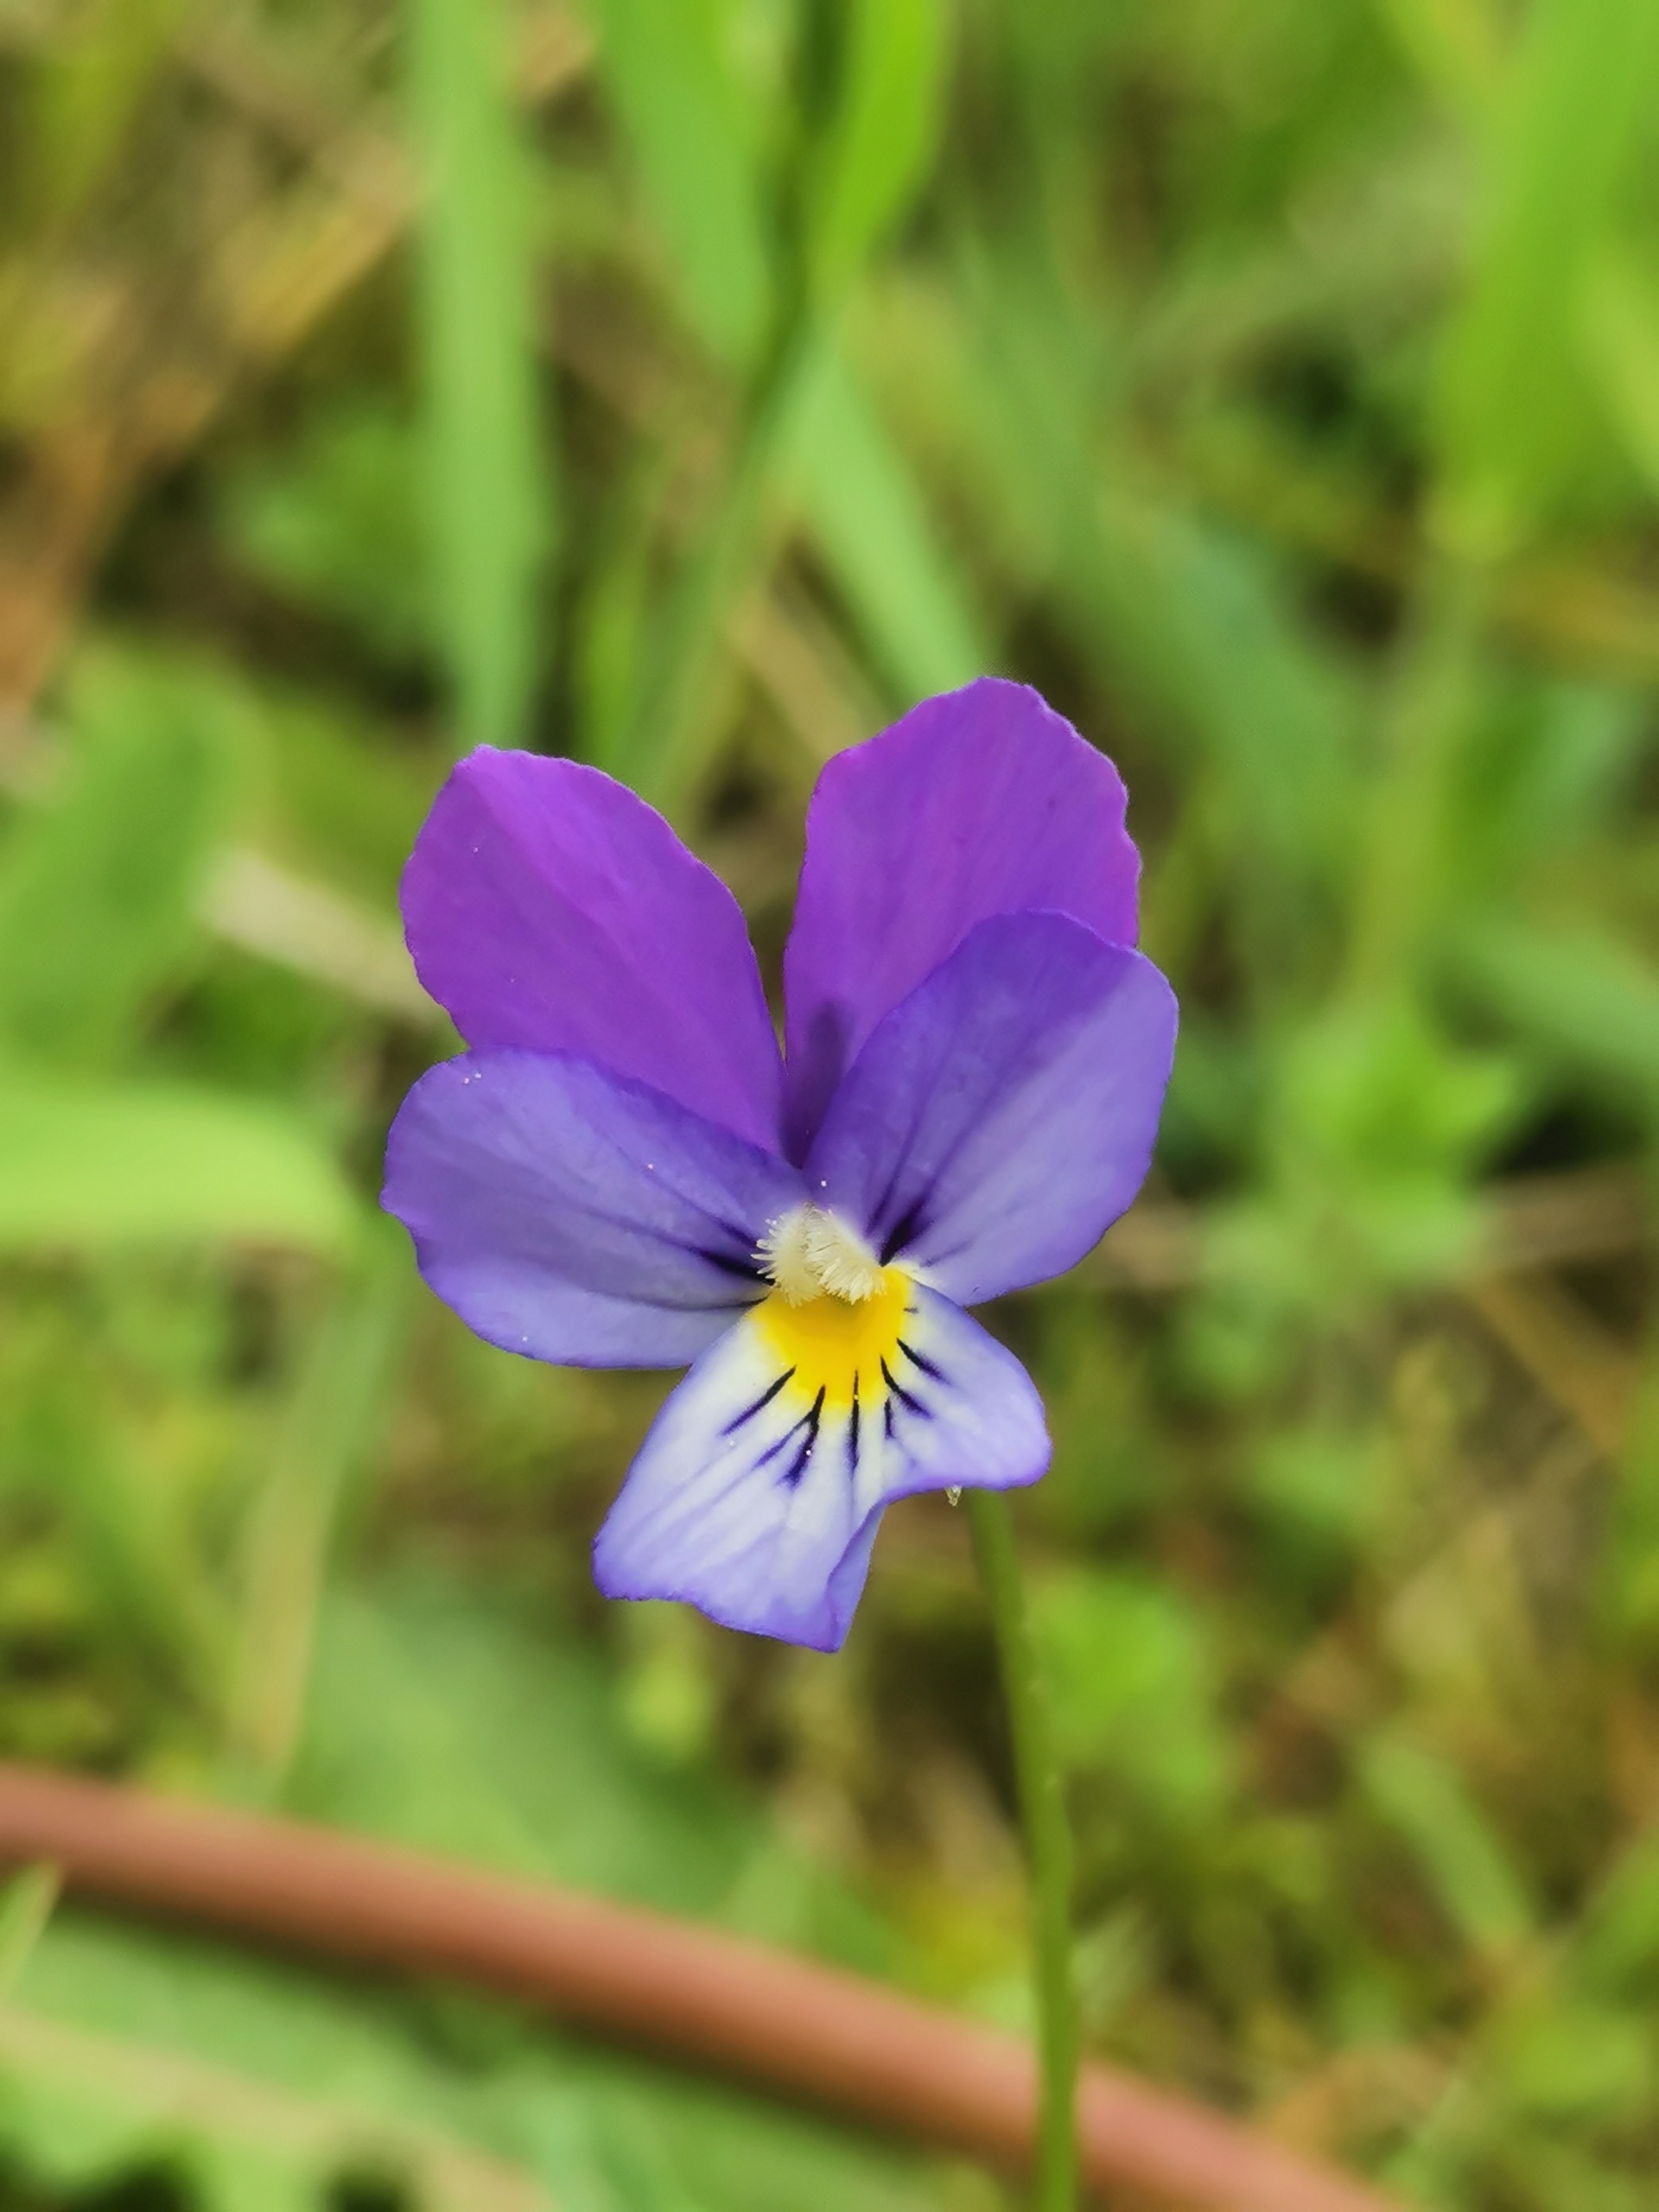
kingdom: Plantae
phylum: Tracheophyta
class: Magnoliopsida
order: Malpighiales
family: Violaceae
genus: Viola
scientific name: Viola tricolor
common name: Almindelig stedmoderblomst
